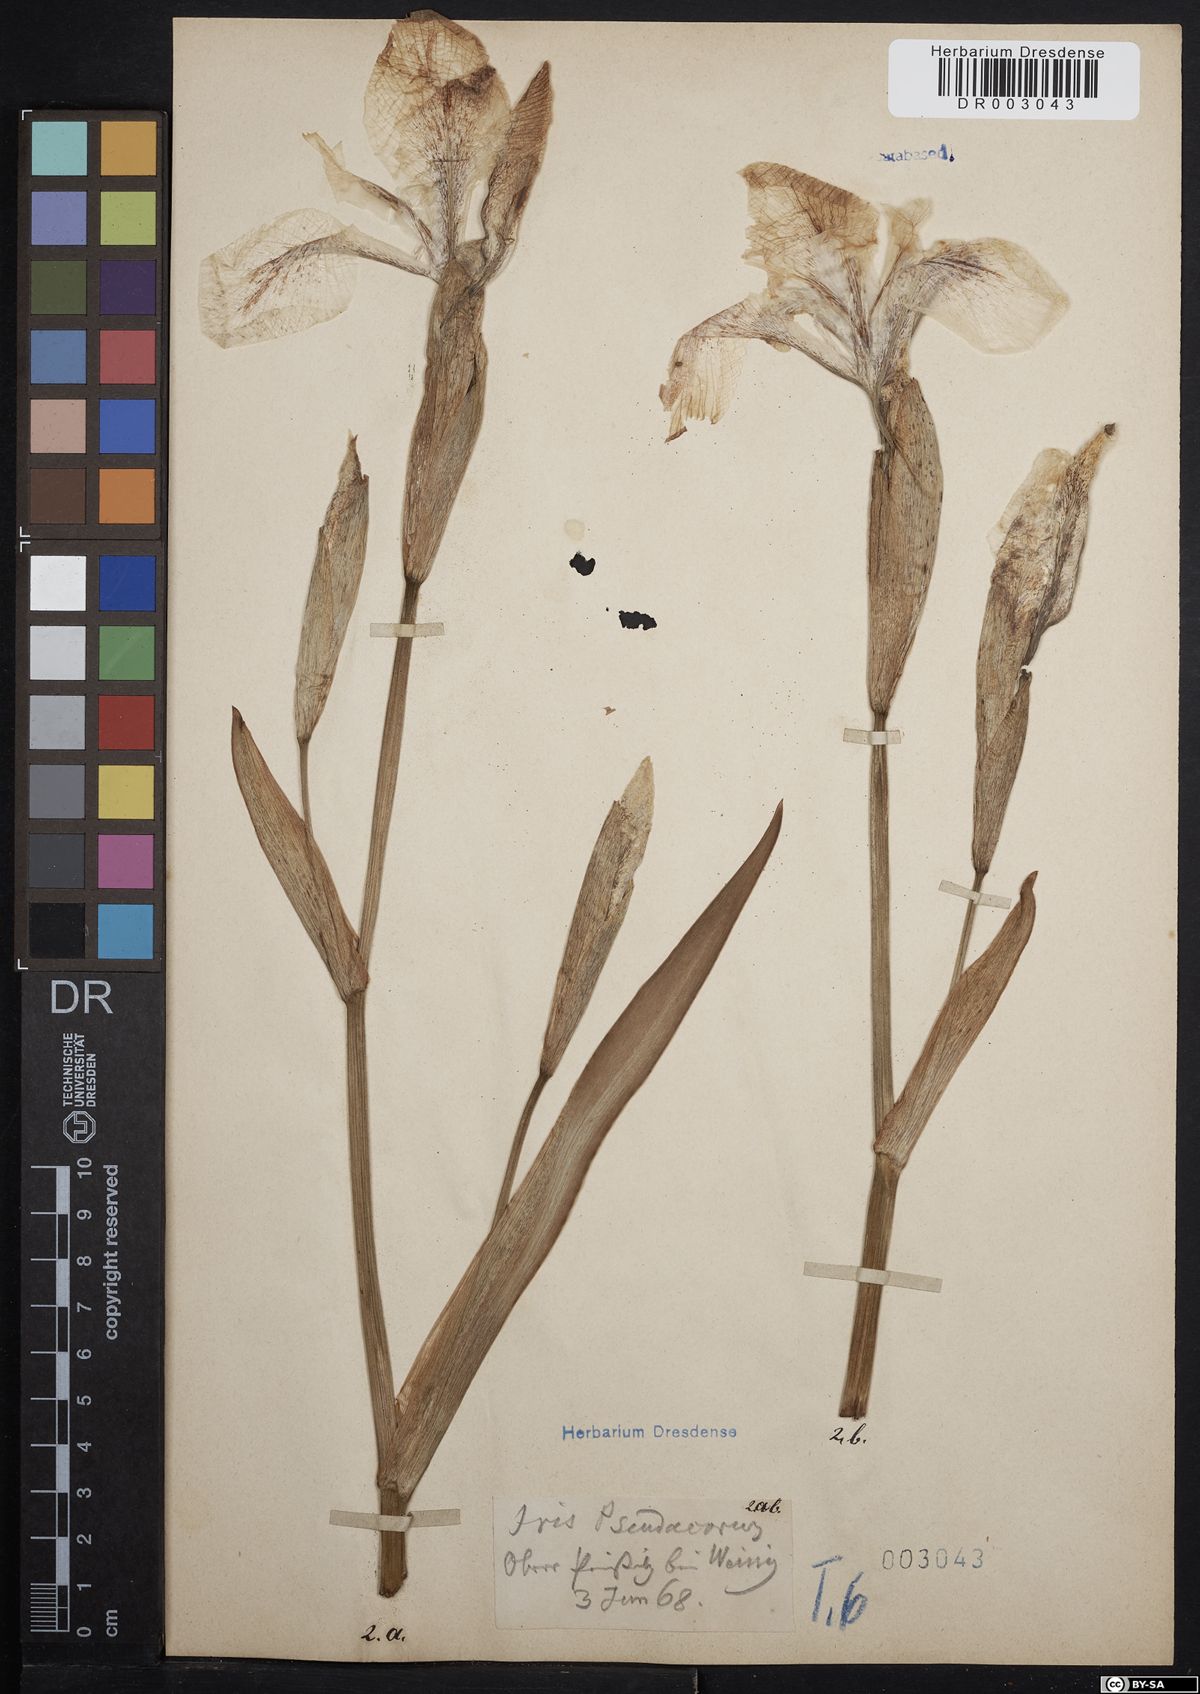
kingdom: Plantae
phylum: Tracheophyta
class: Liliopsida
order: Asparagales
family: Iridaceae
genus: Iris
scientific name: Iris pseudacorus
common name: Yellow flag
